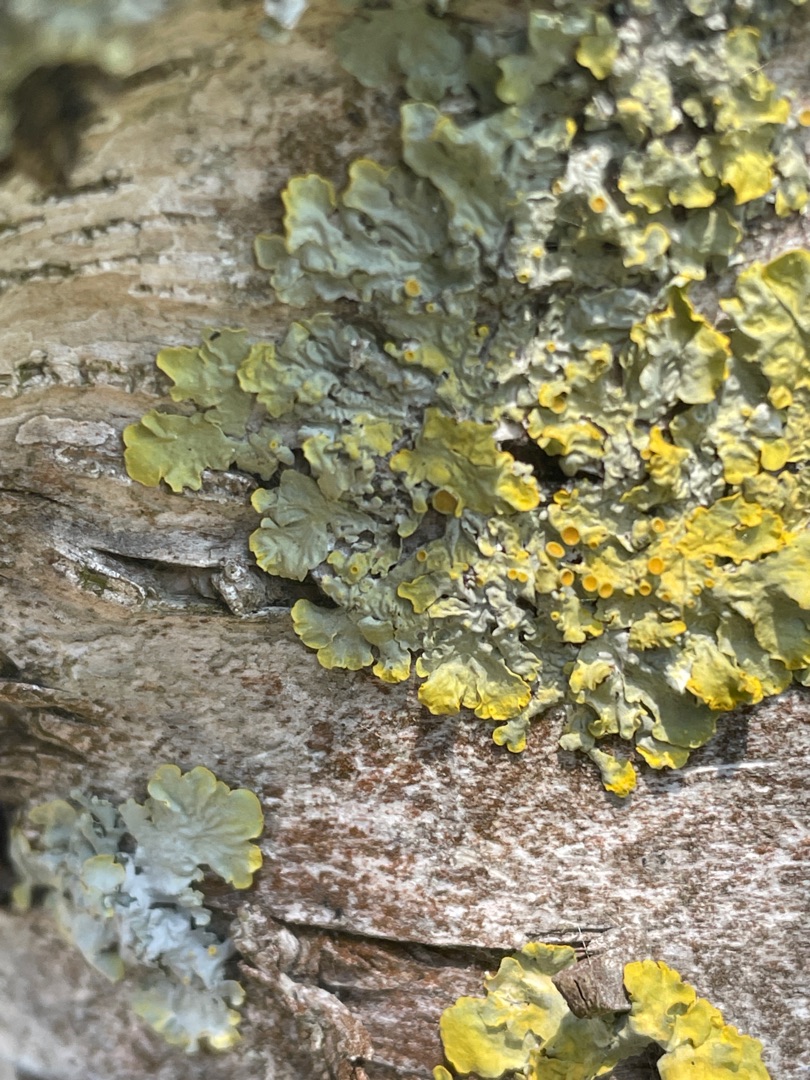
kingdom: Fungi
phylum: Ascomycota
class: Lecanoromycetes
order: Teloschistales
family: Teloschistaceae
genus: Xanthoria
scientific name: Xanthoria parietina
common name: Almindelig væggelav
